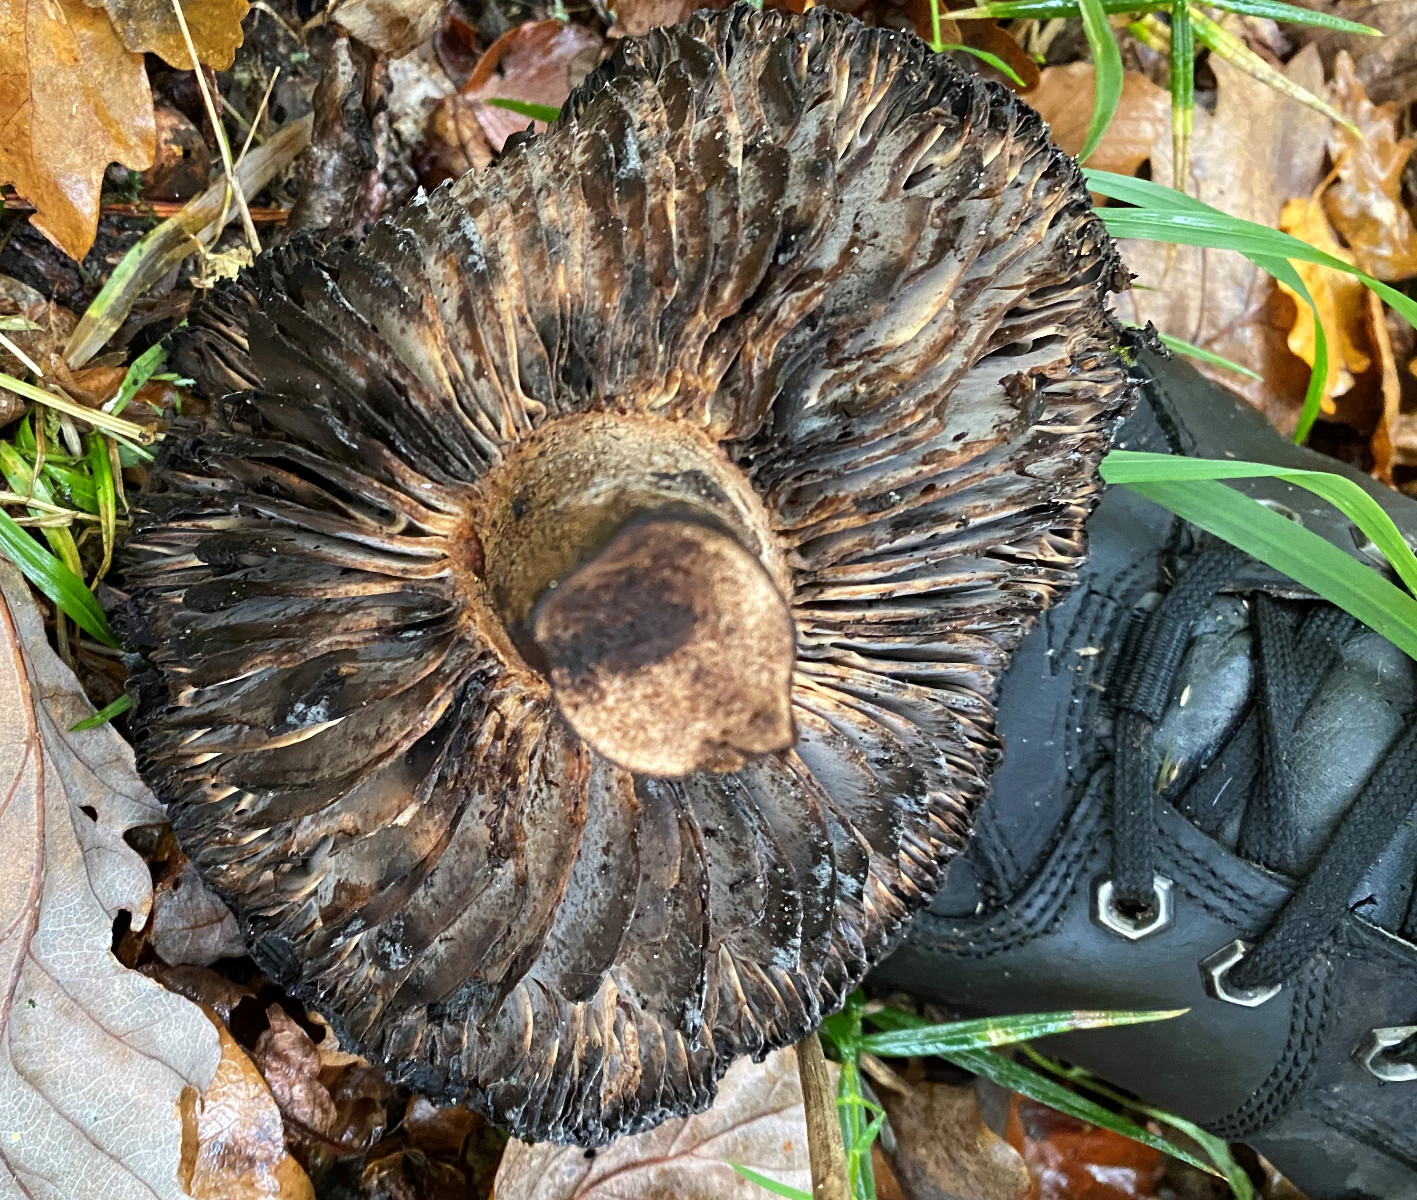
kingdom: Fungi
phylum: Basidiomycota
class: Agaricomycetes
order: Russulales
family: Russulaceae
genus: Russula
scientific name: Russula adusta
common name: sværtende skørhat
